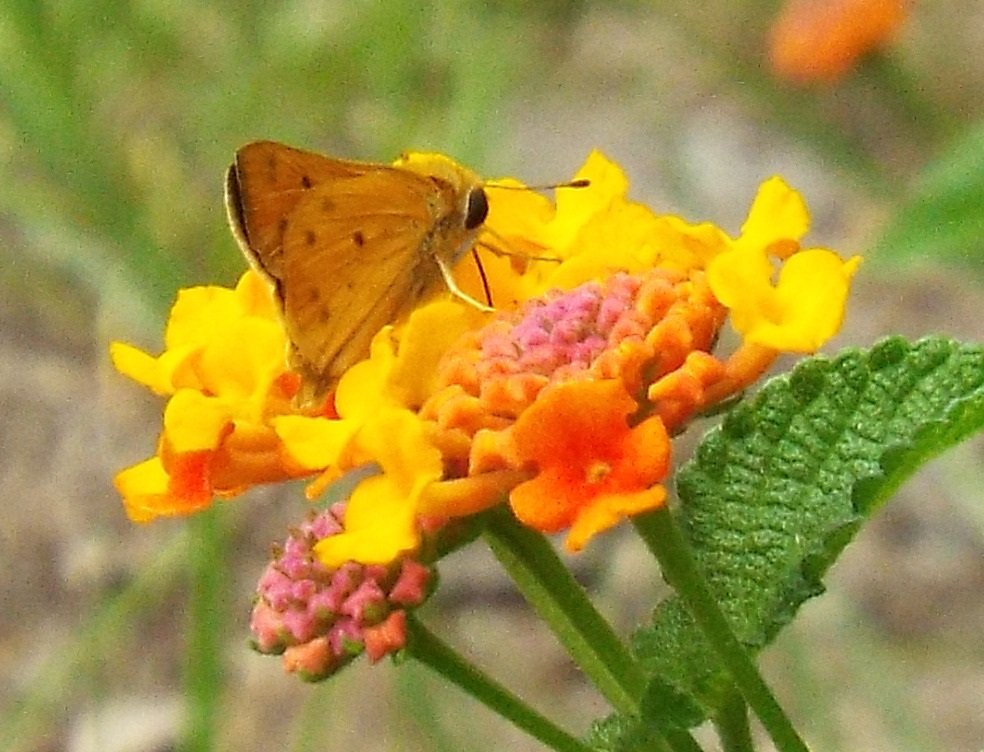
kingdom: Animalia
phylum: Arthropoda
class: Insecta
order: Lepidoptera
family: Hesperiidae
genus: Hylephila
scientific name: Hylephila phyleus
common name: Fiery Skipper
